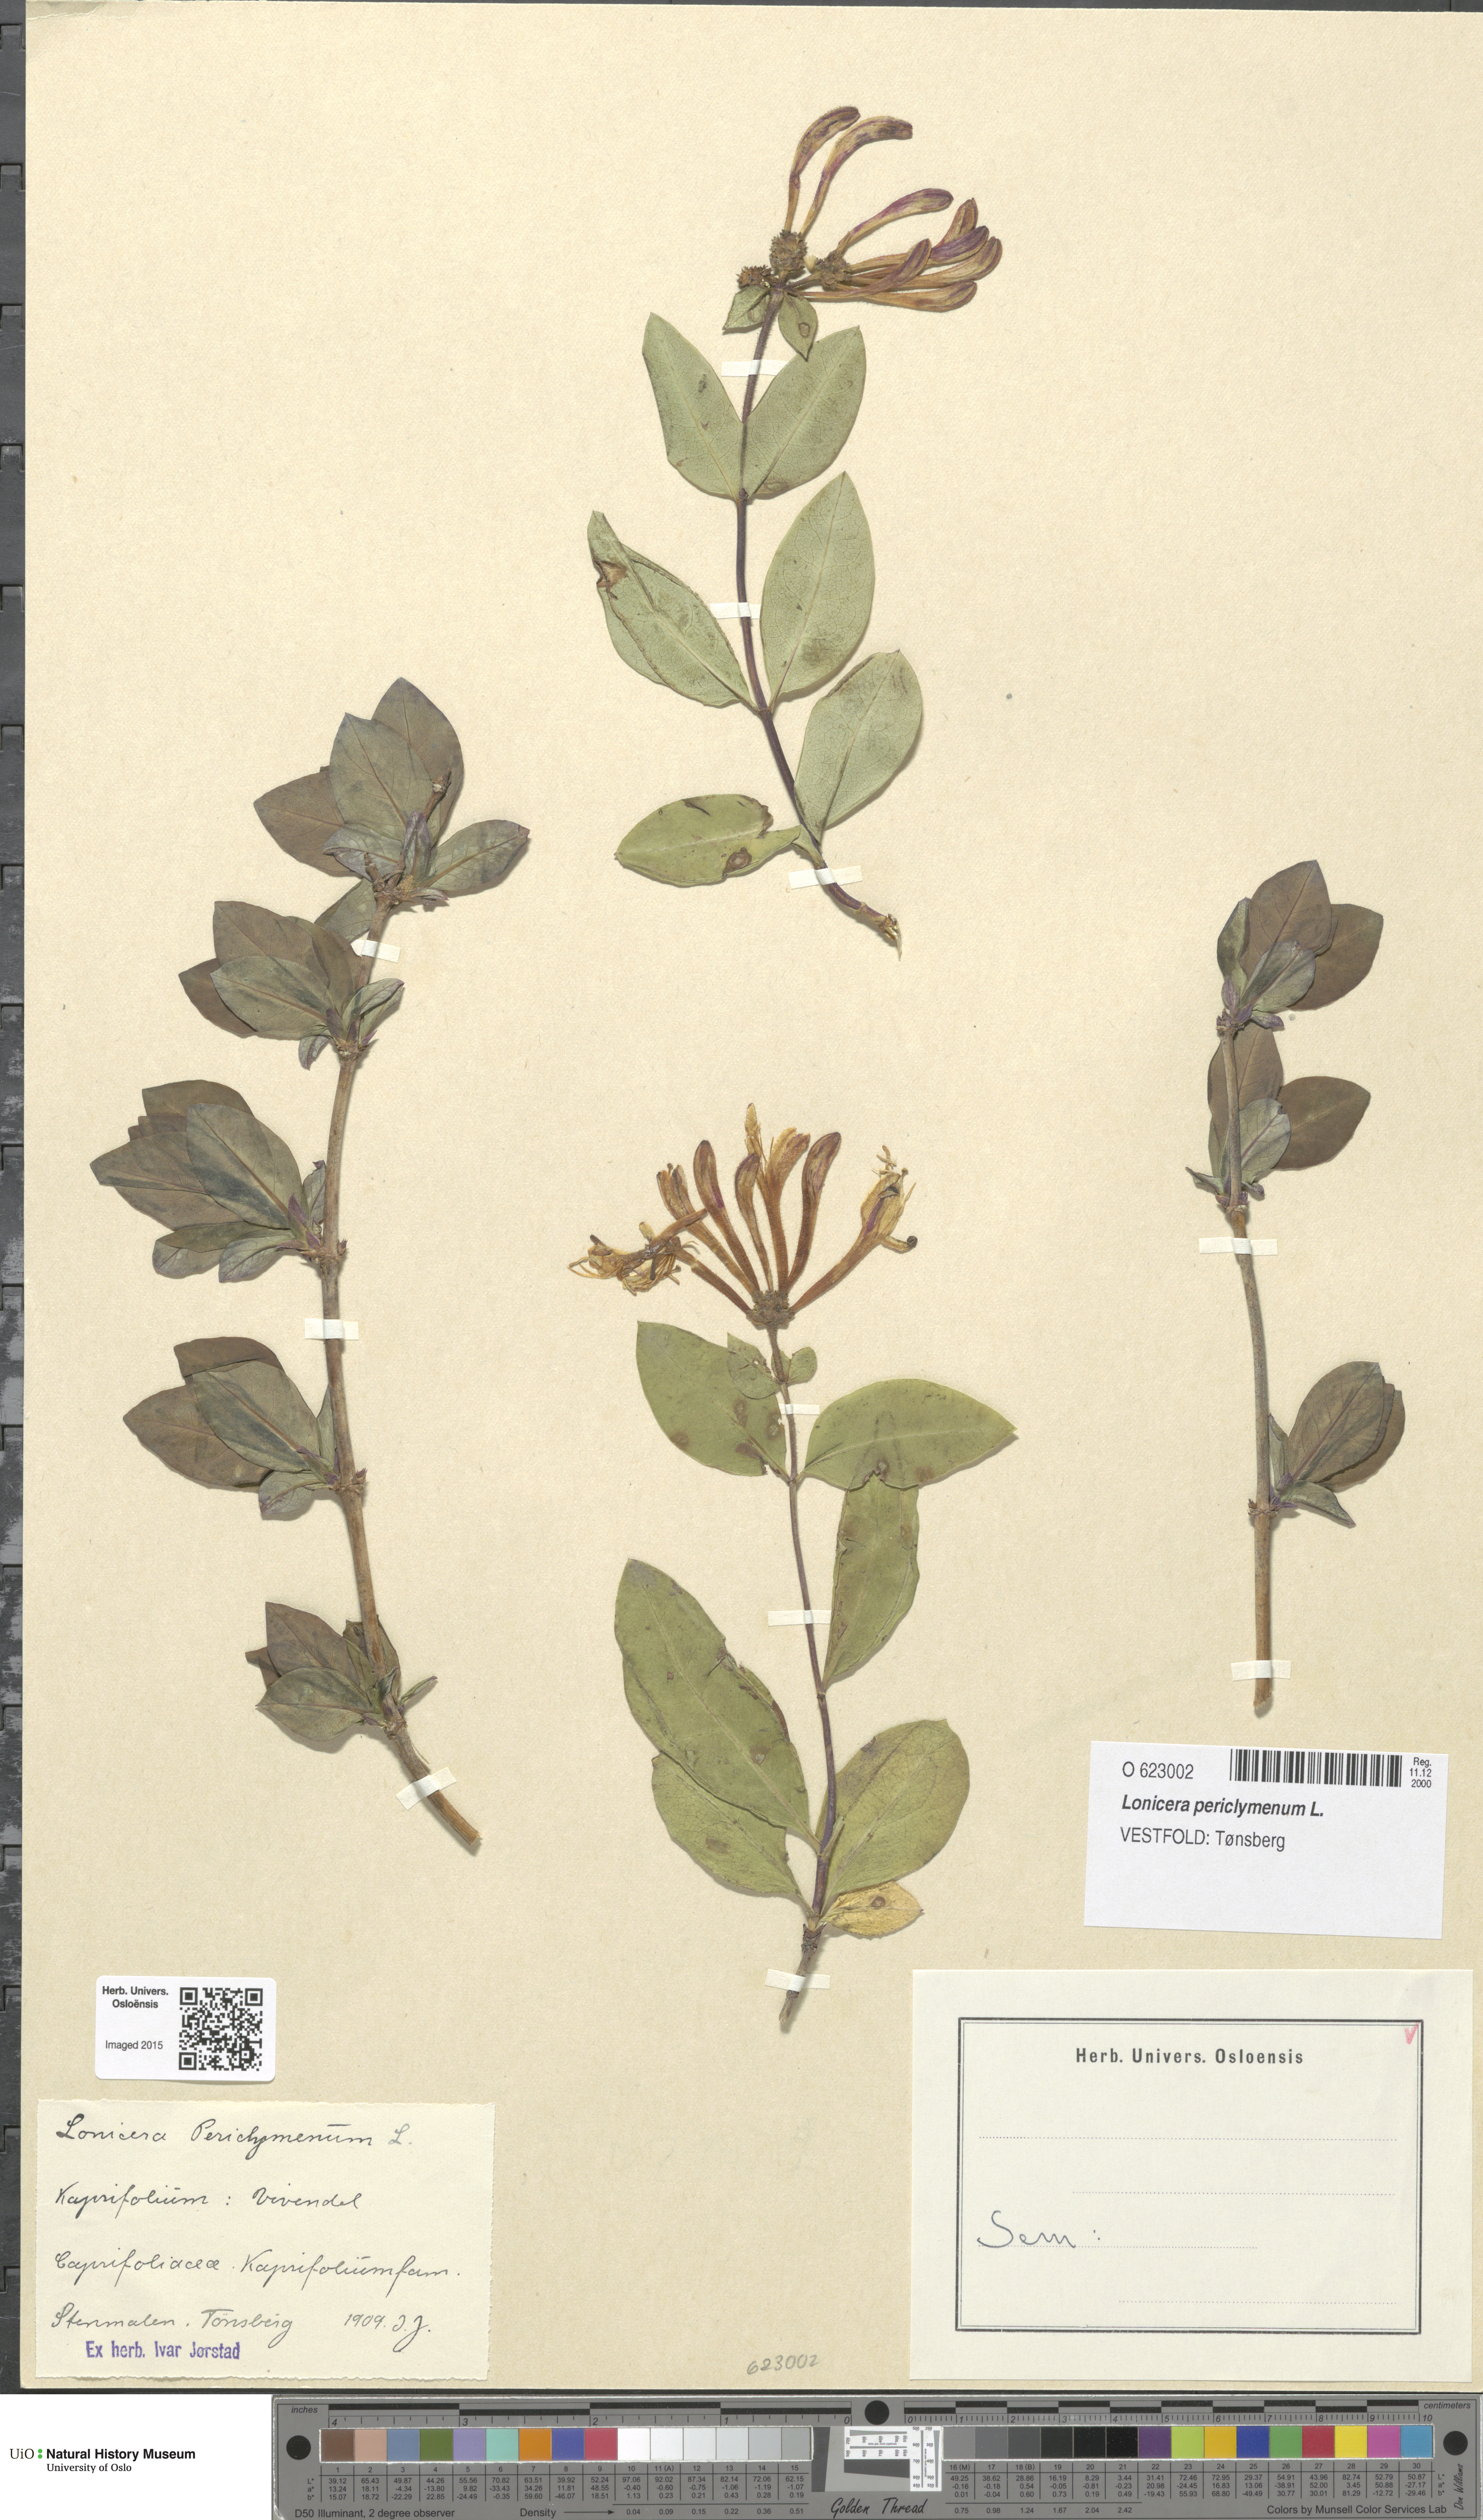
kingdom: Plantae
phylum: Tracheophyta
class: Magnoliopsida
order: Dipsacales
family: Caprifoliaceae
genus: Lonicera
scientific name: Lonicera periclymenum
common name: European honeysuckle
